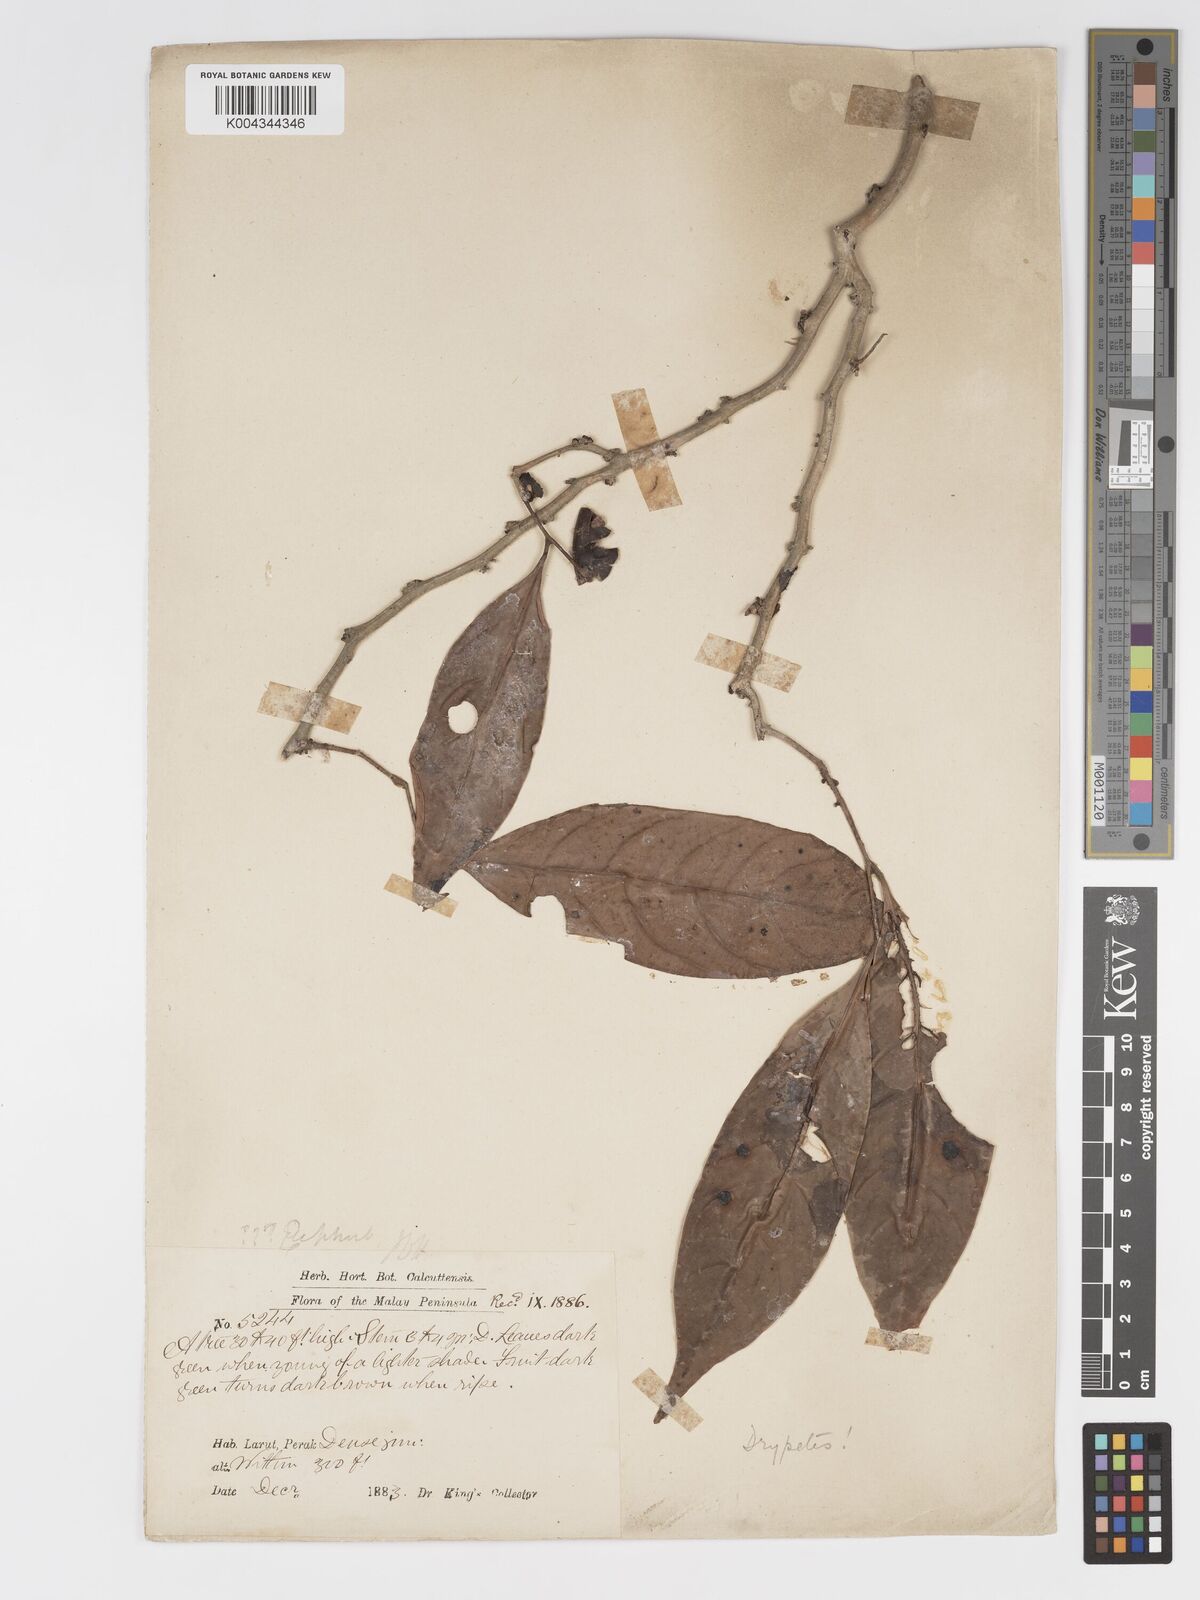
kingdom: Plantae
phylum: Tracheophyta
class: Magnoliopsida
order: Malpighiales
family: Putranjivaceae
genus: Drypetes
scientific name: Drypetes grandifolia
